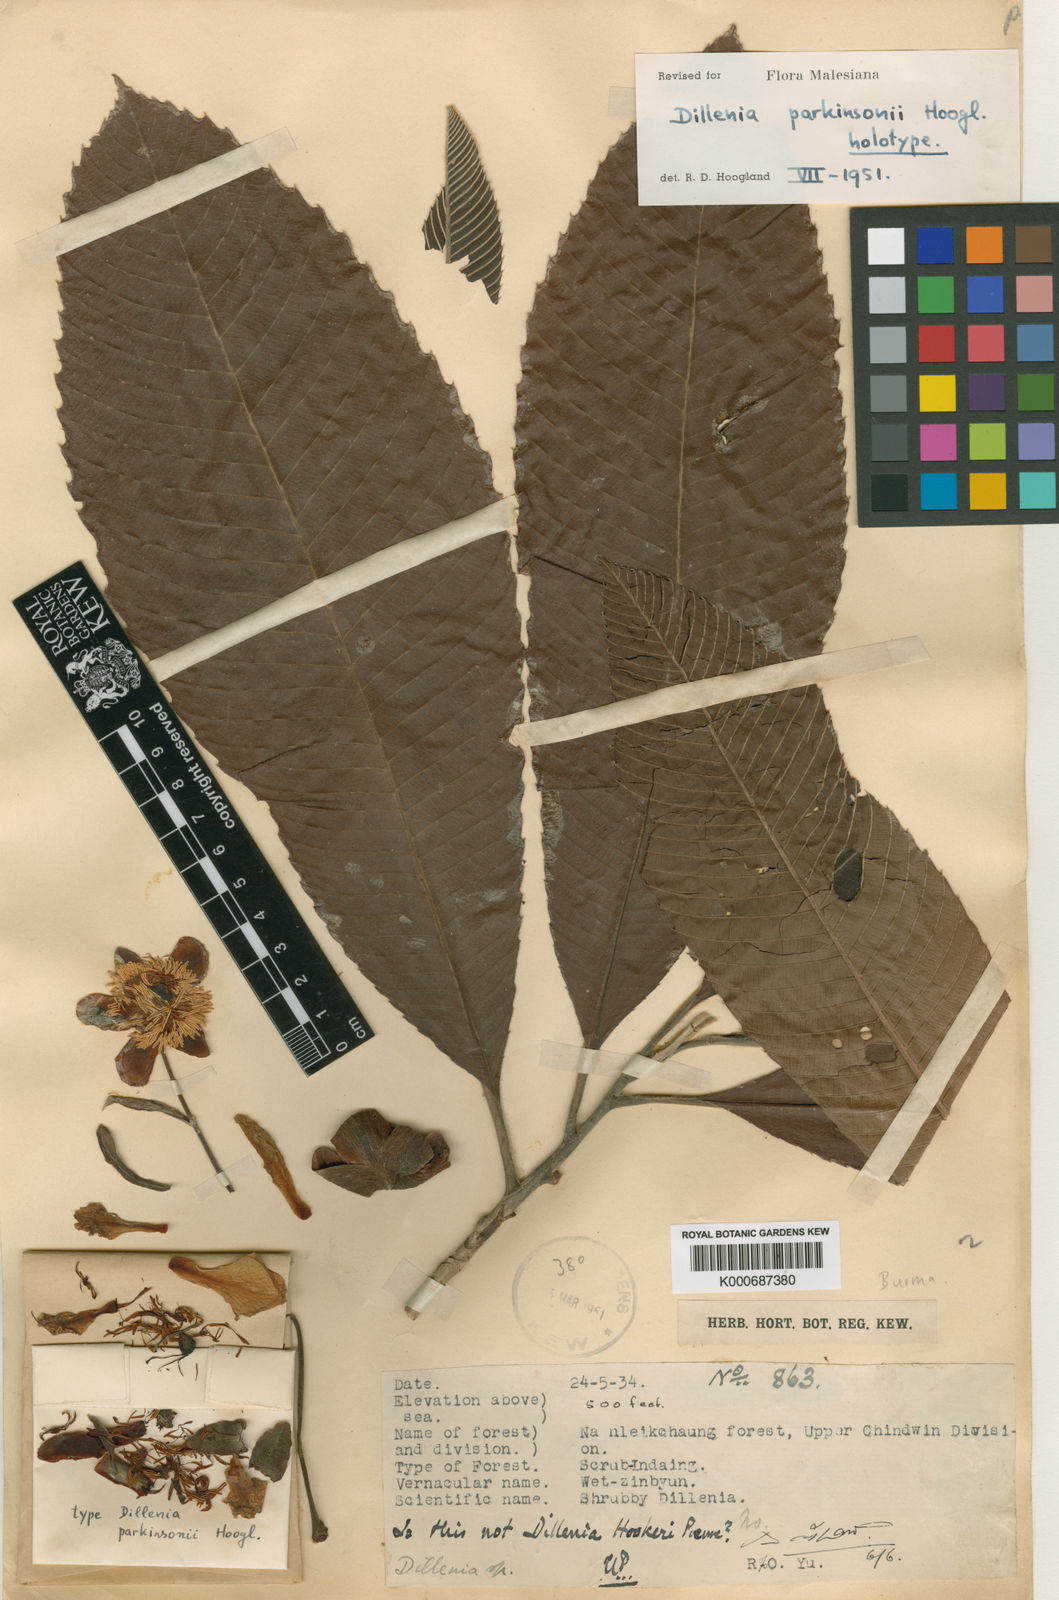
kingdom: Plantae
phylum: Tracheophyta
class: Magnoliopsida
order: Dilleniales
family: Dilleniaceae
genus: Dillenia
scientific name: Dillenia parkinsonii
